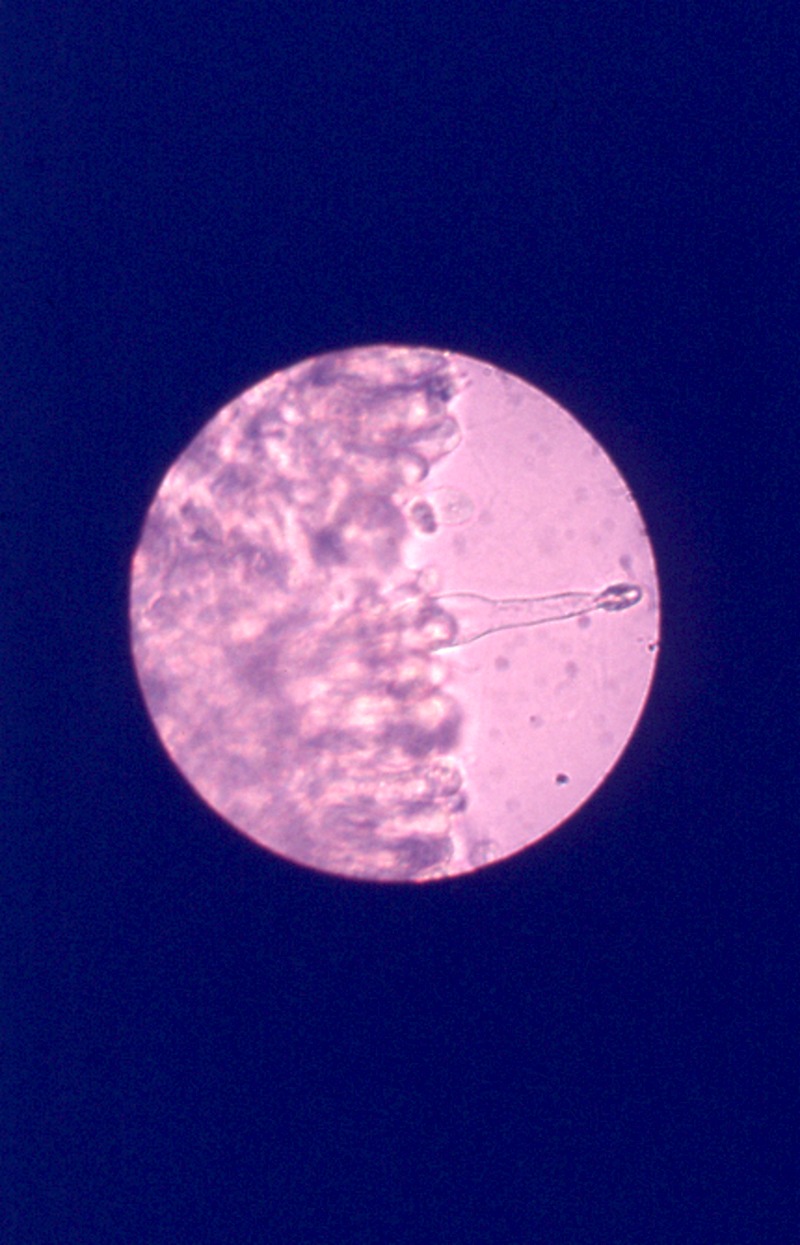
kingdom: Fungi
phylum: Basidiomycota
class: Agaricomycetes
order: Agaricales
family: Tricholomataceae
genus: Melanoleuca
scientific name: Melanoleuca arcuata
